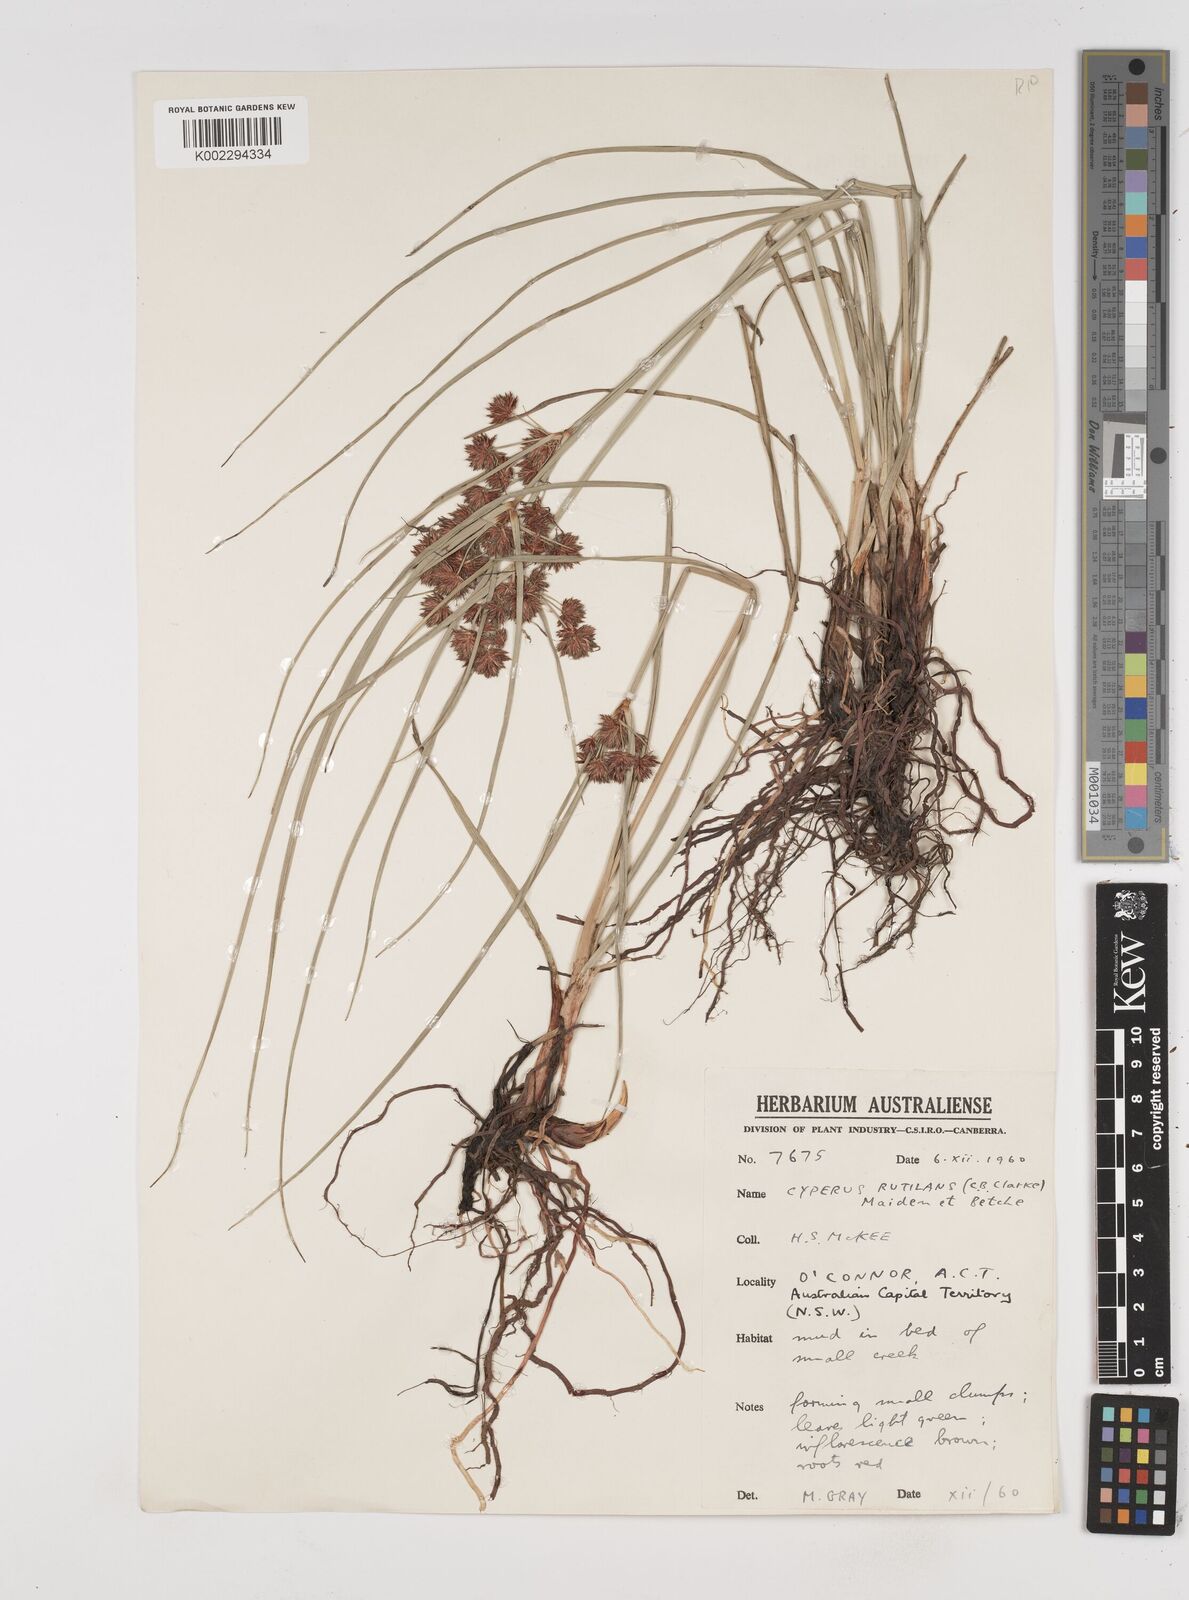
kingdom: Plantae
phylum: Tracheophyta
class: Liliopsida
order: Poales
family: Cyperaceae
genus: Cyperus
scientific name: Cyperus lhotskyanus
